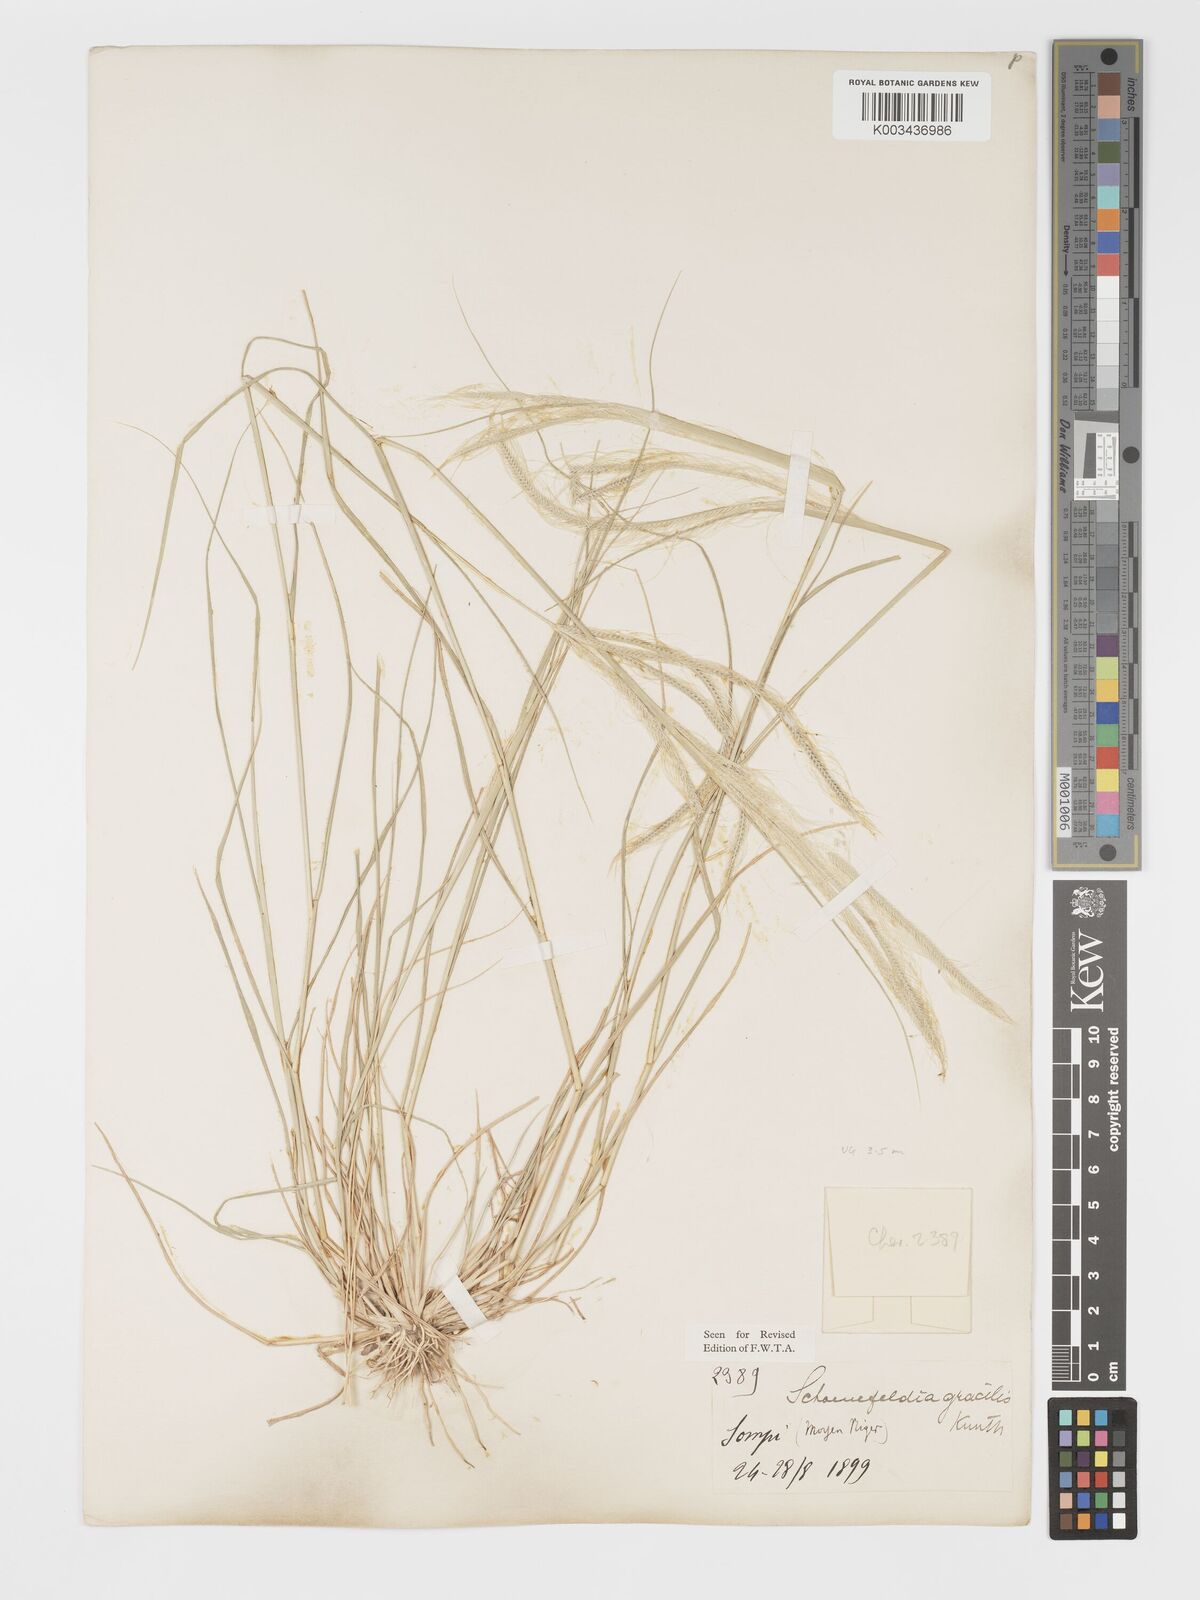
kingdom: Plantae
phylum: Tracheophyta
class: Liliopsida
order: Poales
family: Poaceae
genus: Schoenefeldia
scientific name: Schoenefeldia gracilis
